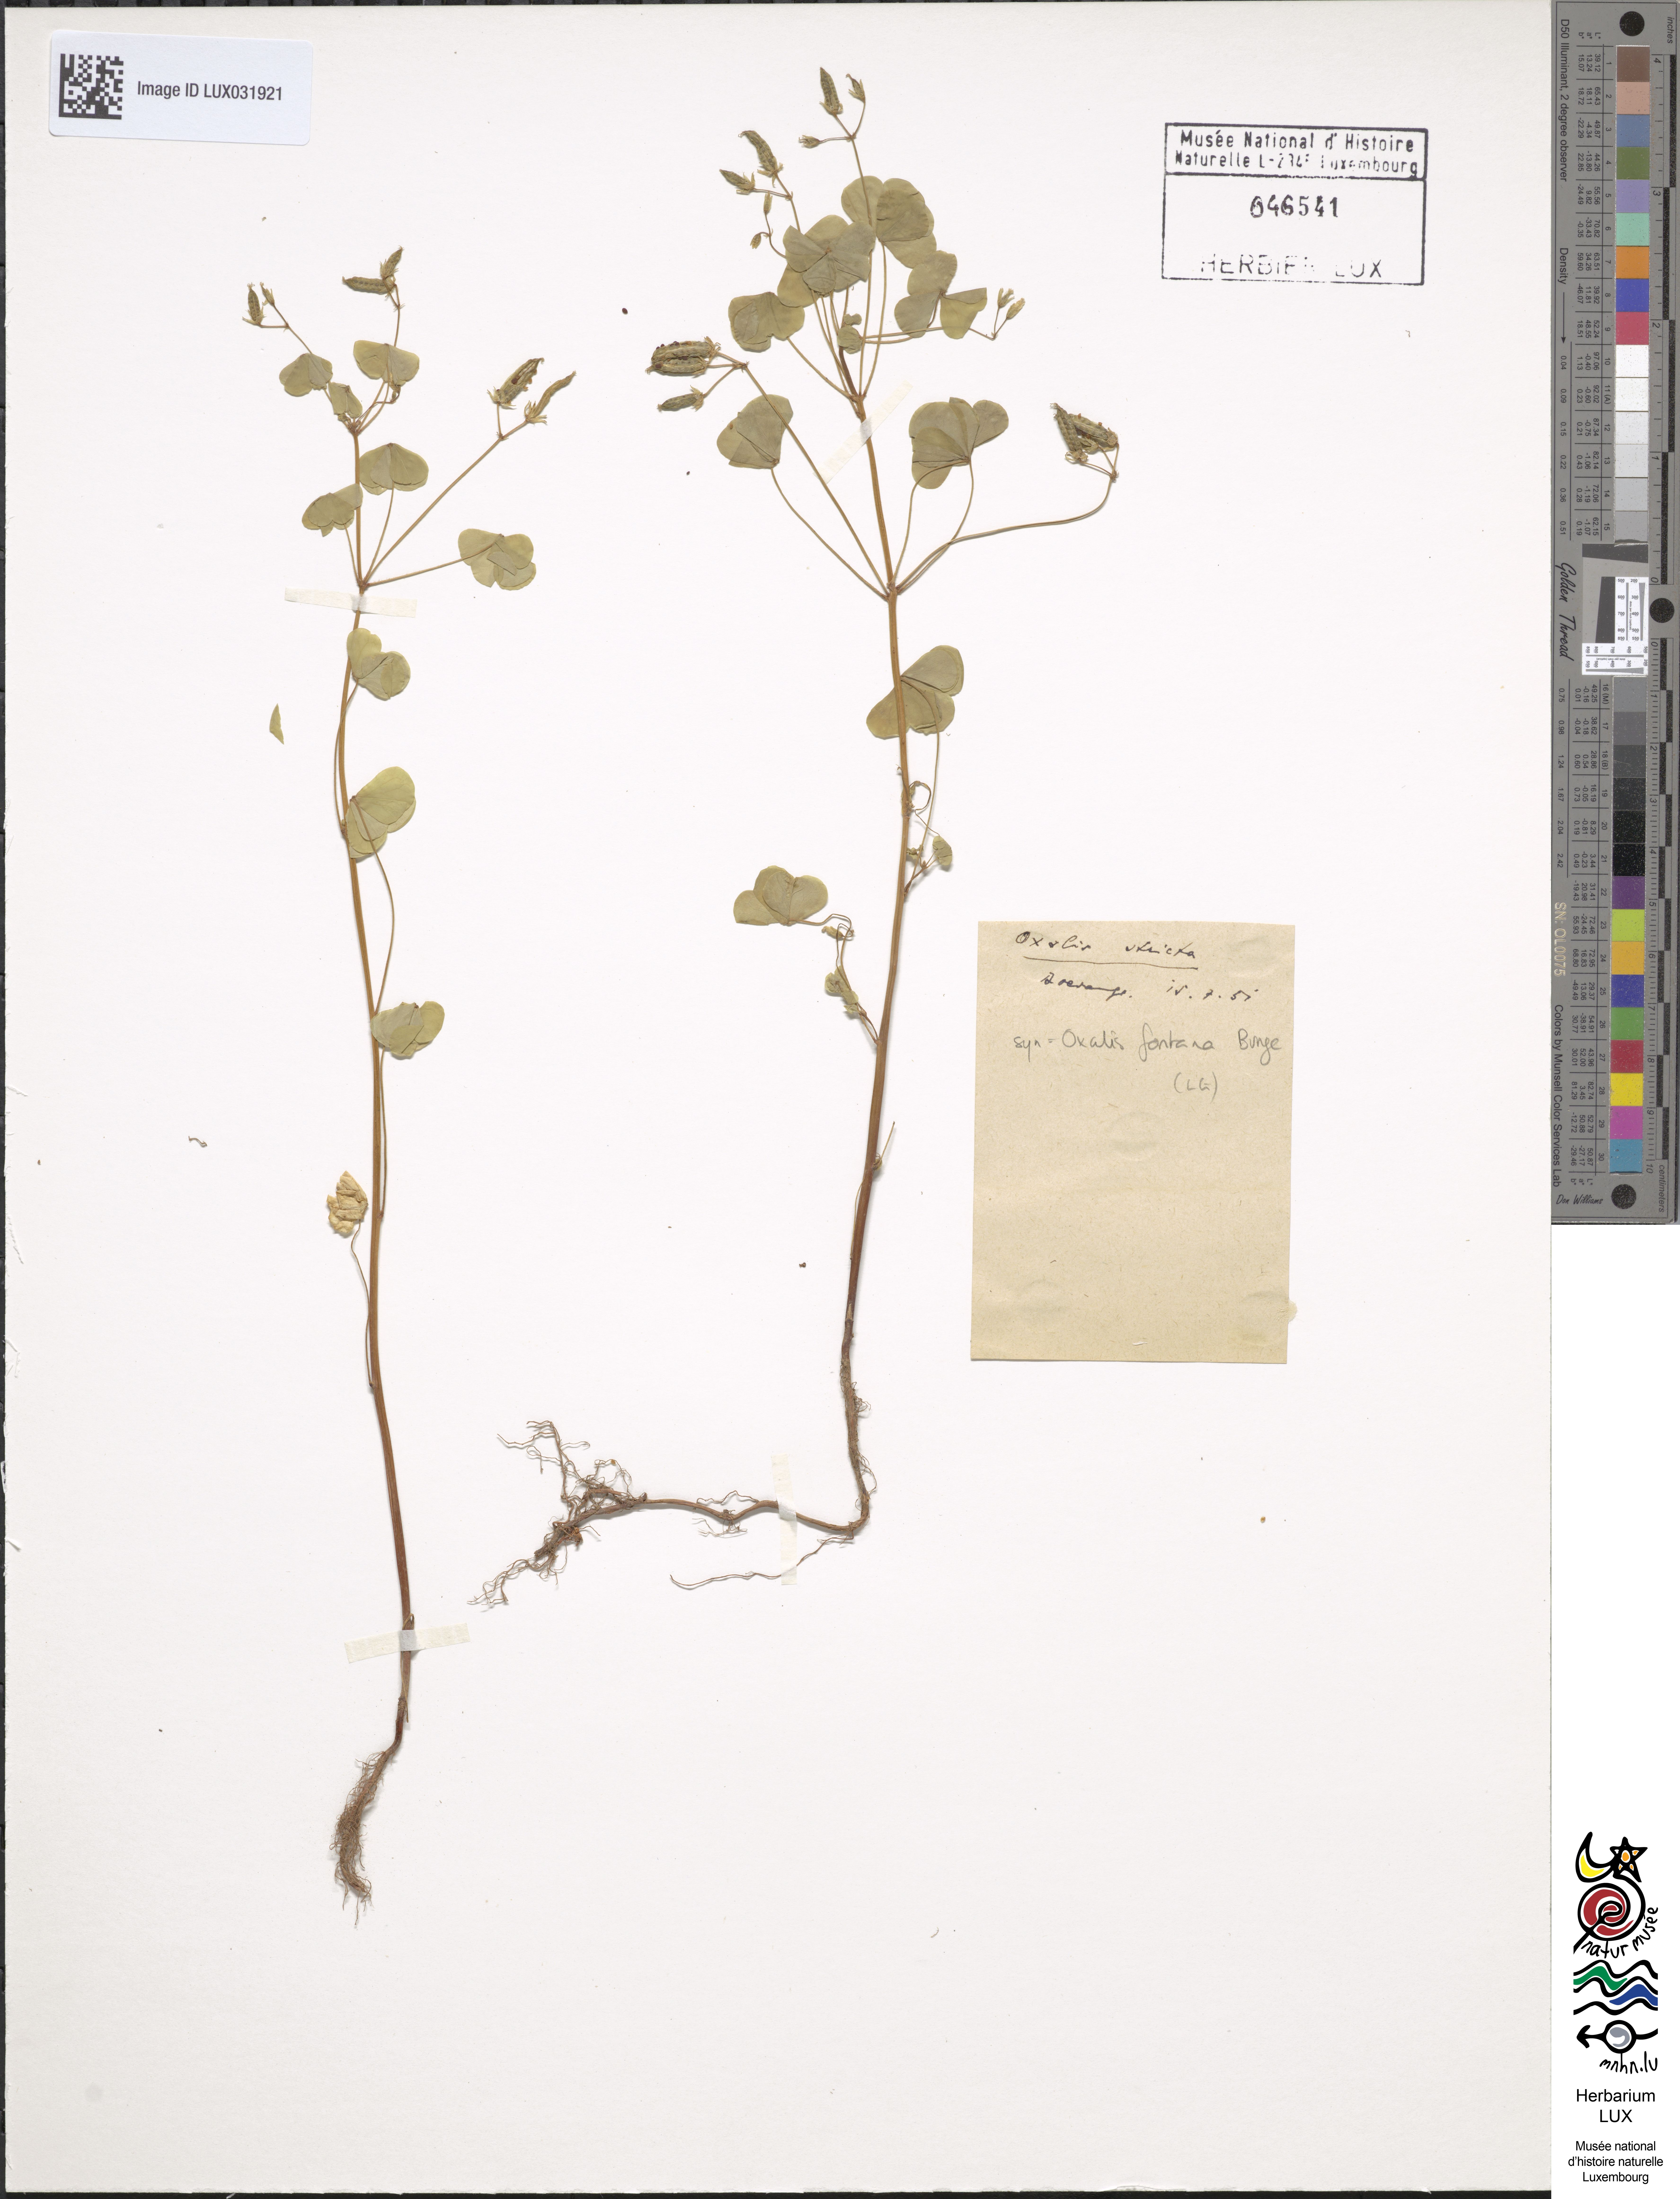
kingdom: Plantae
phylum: Tracheophyta
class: Magnoliopsida
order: Oxalidales
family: Oxalidaceae
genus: Oxalis
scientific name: Oxalis stricta
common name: Upright yellow-sorrel
